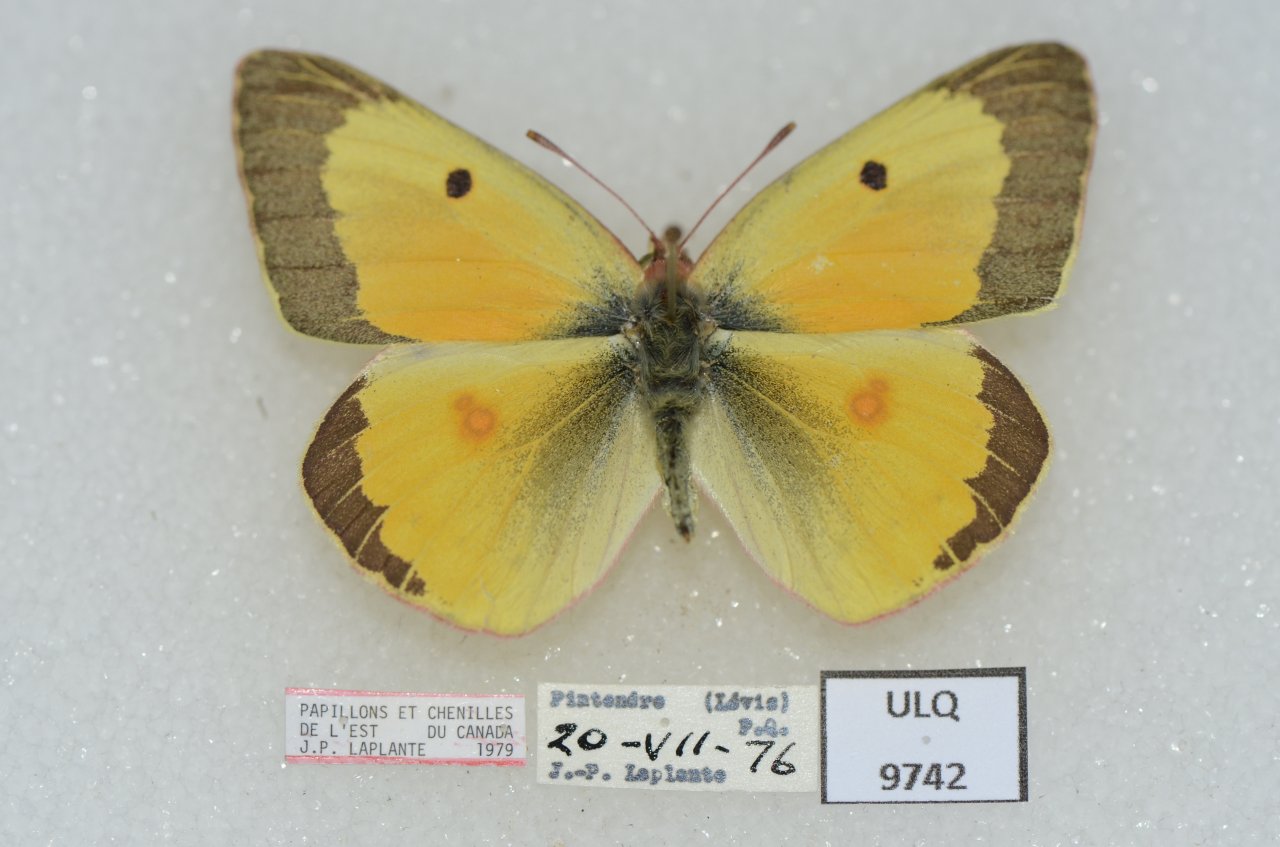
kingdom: Animalia
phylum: Arthropoda
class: Insecta
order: Lepidoptera
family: Pieridae
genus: Colias
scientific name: Colias philodice
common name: Clouded Sulphur
